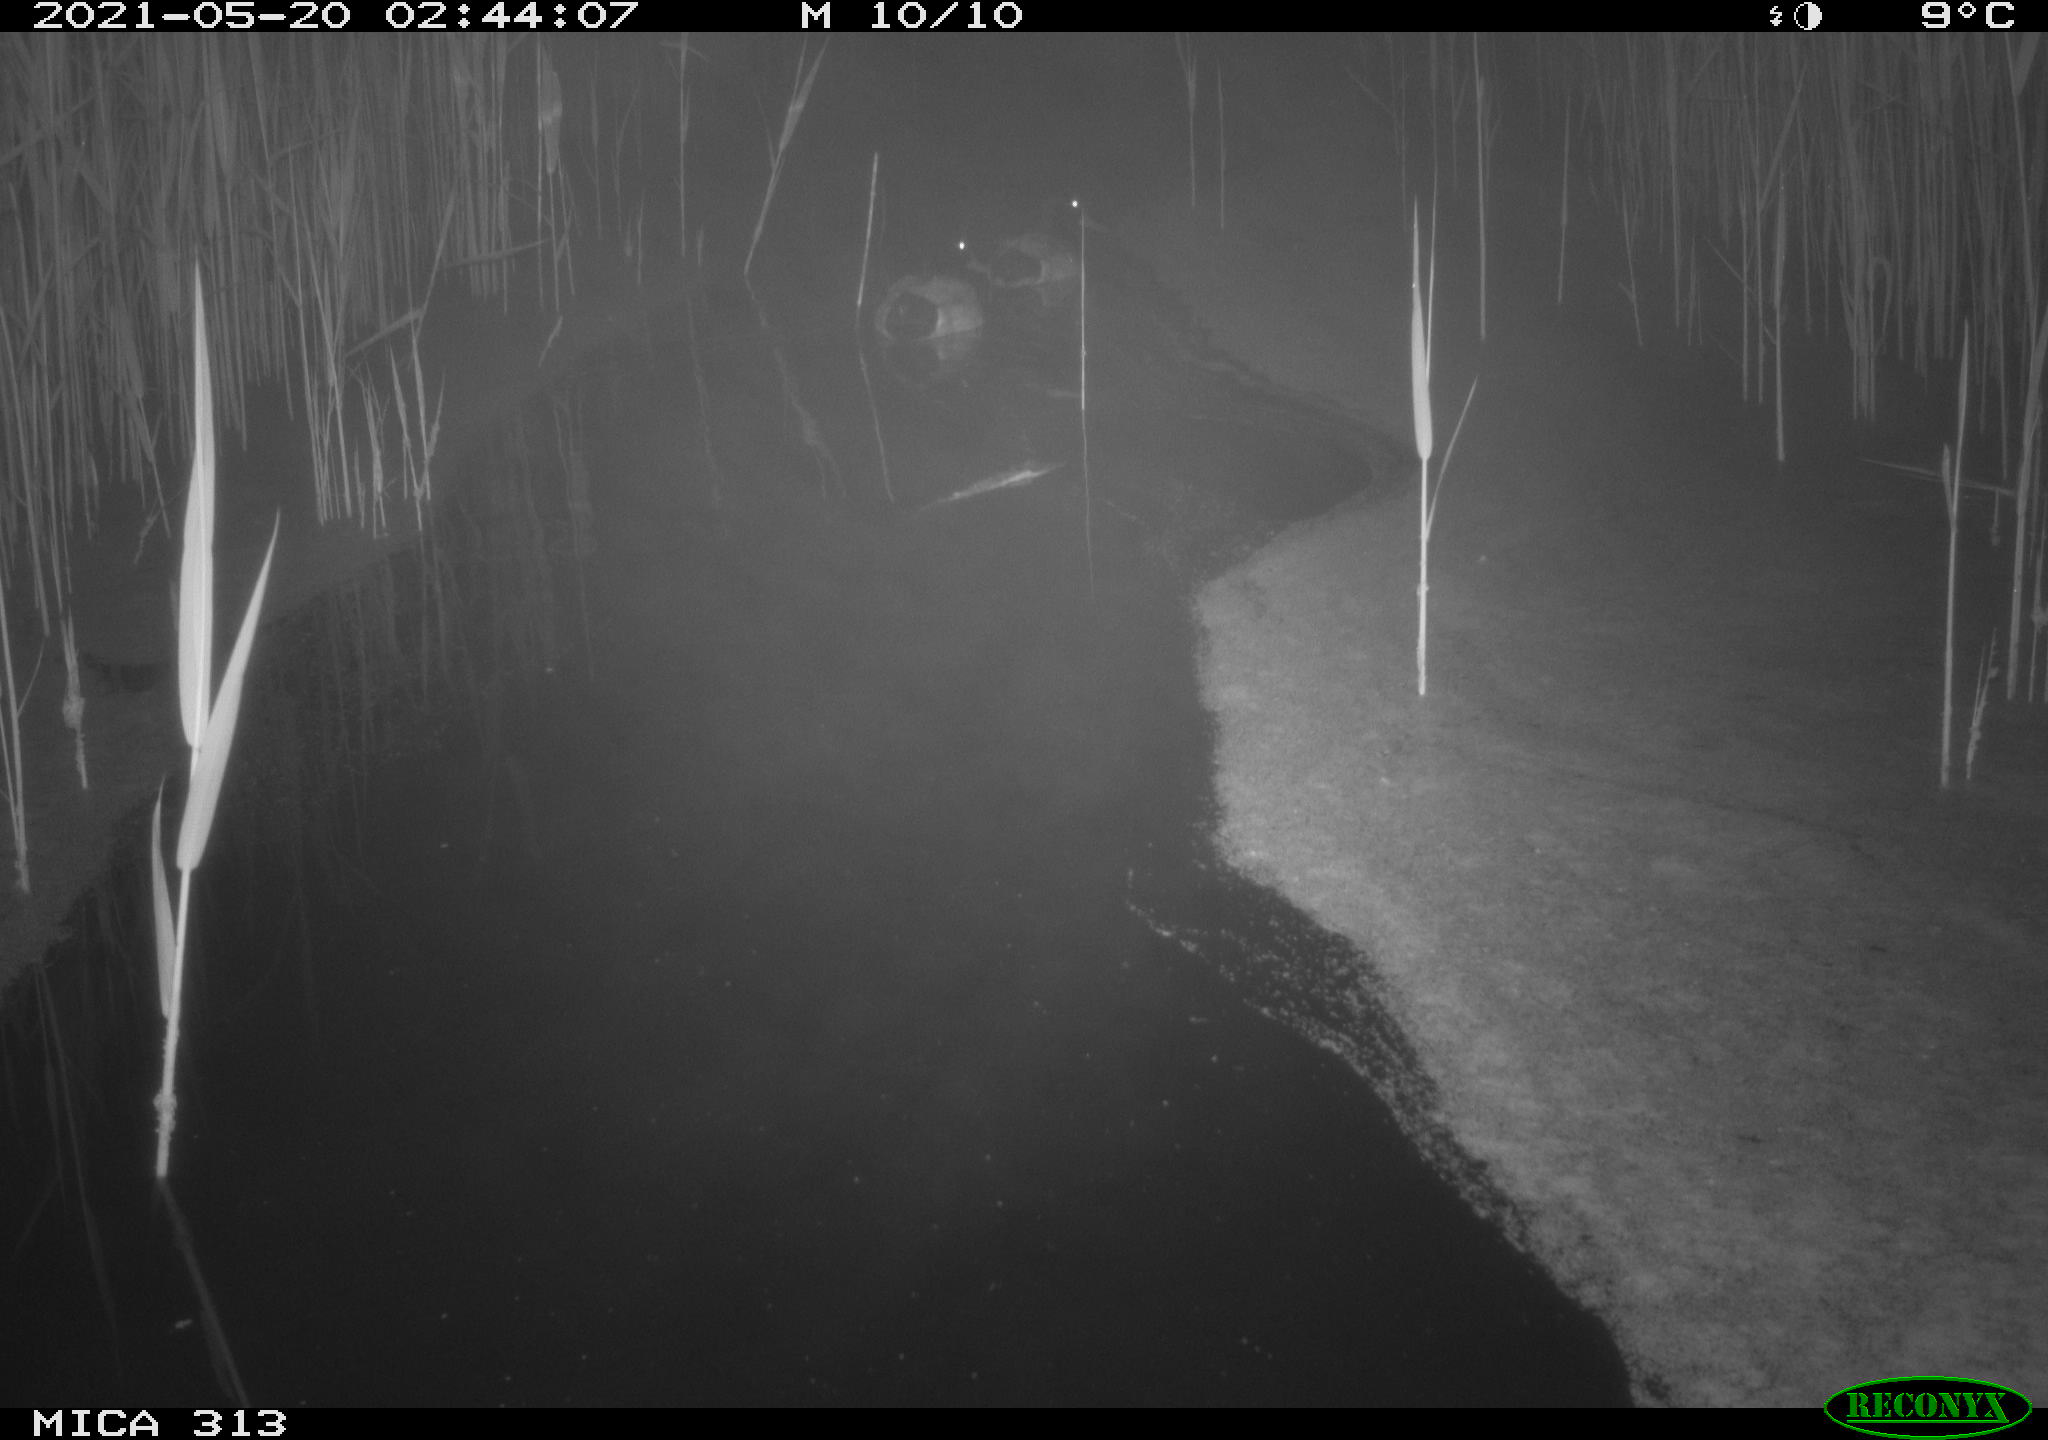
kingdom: Animalia
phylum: Chordata
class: Aves
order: Anseriformes
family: Anatidae
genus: Anas
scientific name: Anas platyrhynchos
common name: Mallard
